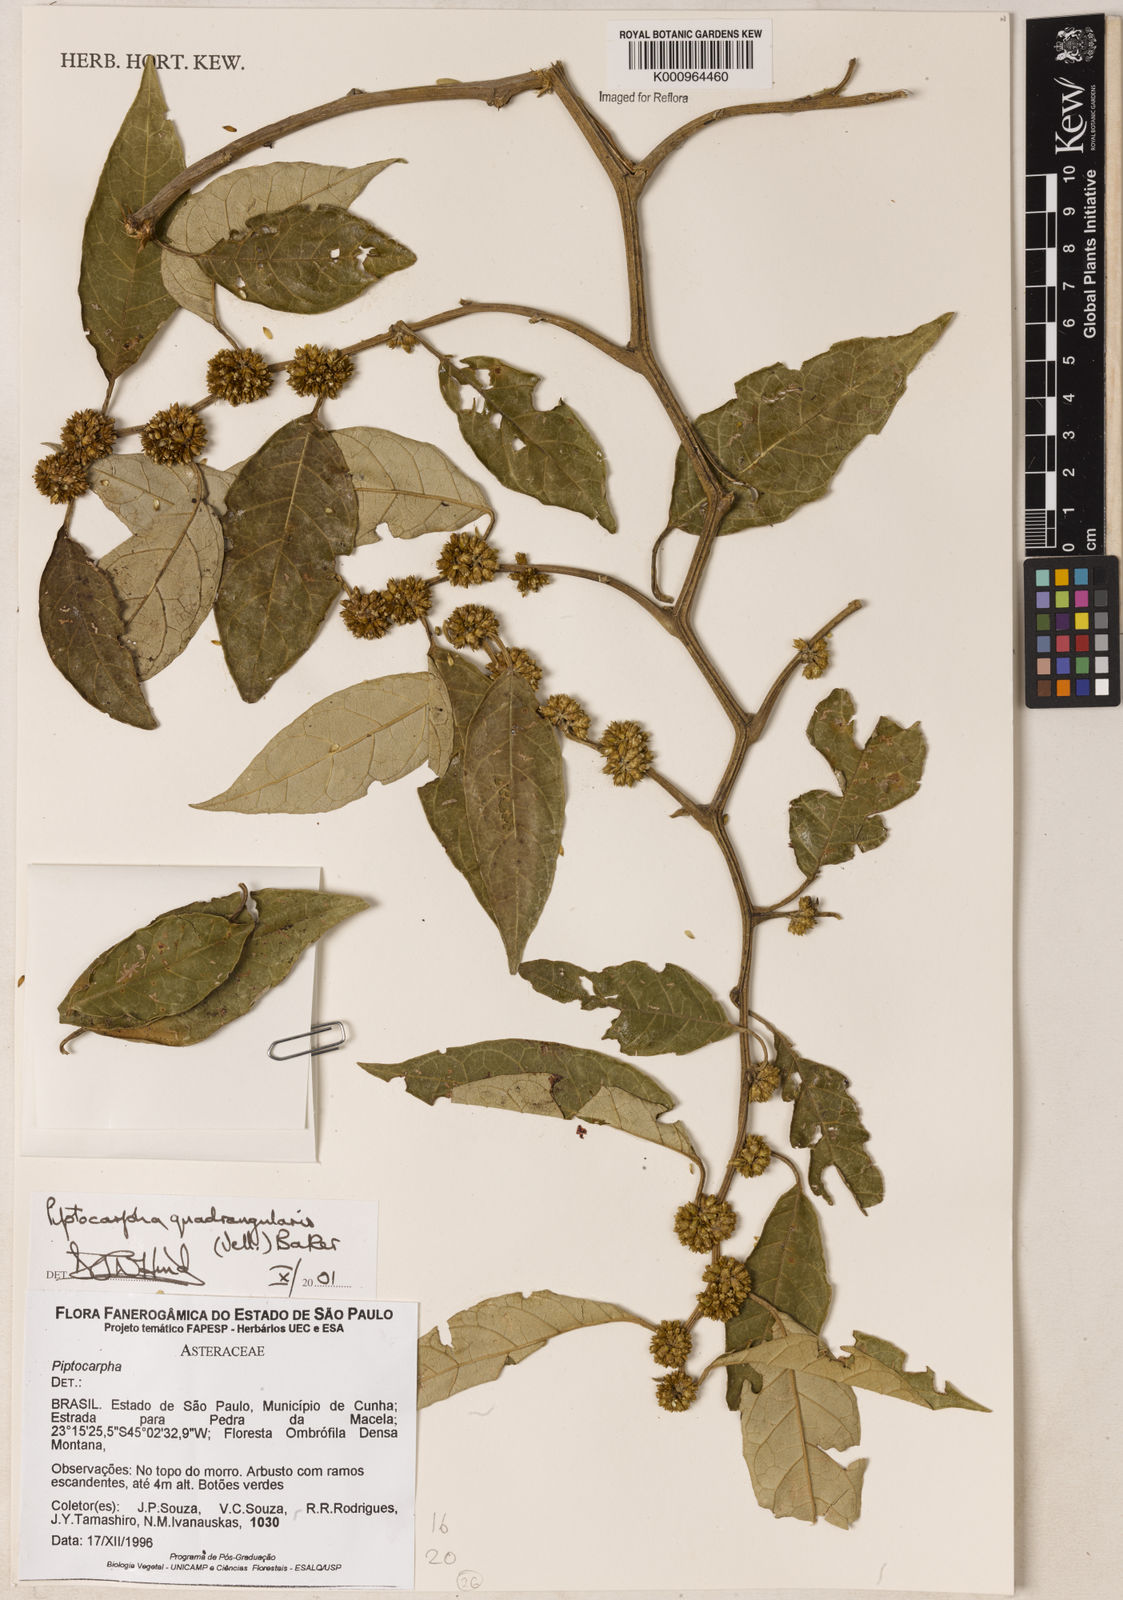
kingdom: Plantae
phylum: Tracheophyta
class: Magnoliopsida
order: Asterales
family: Asteraceae
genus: Piptocarpha
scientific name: Piptocarpha quadrangularis
